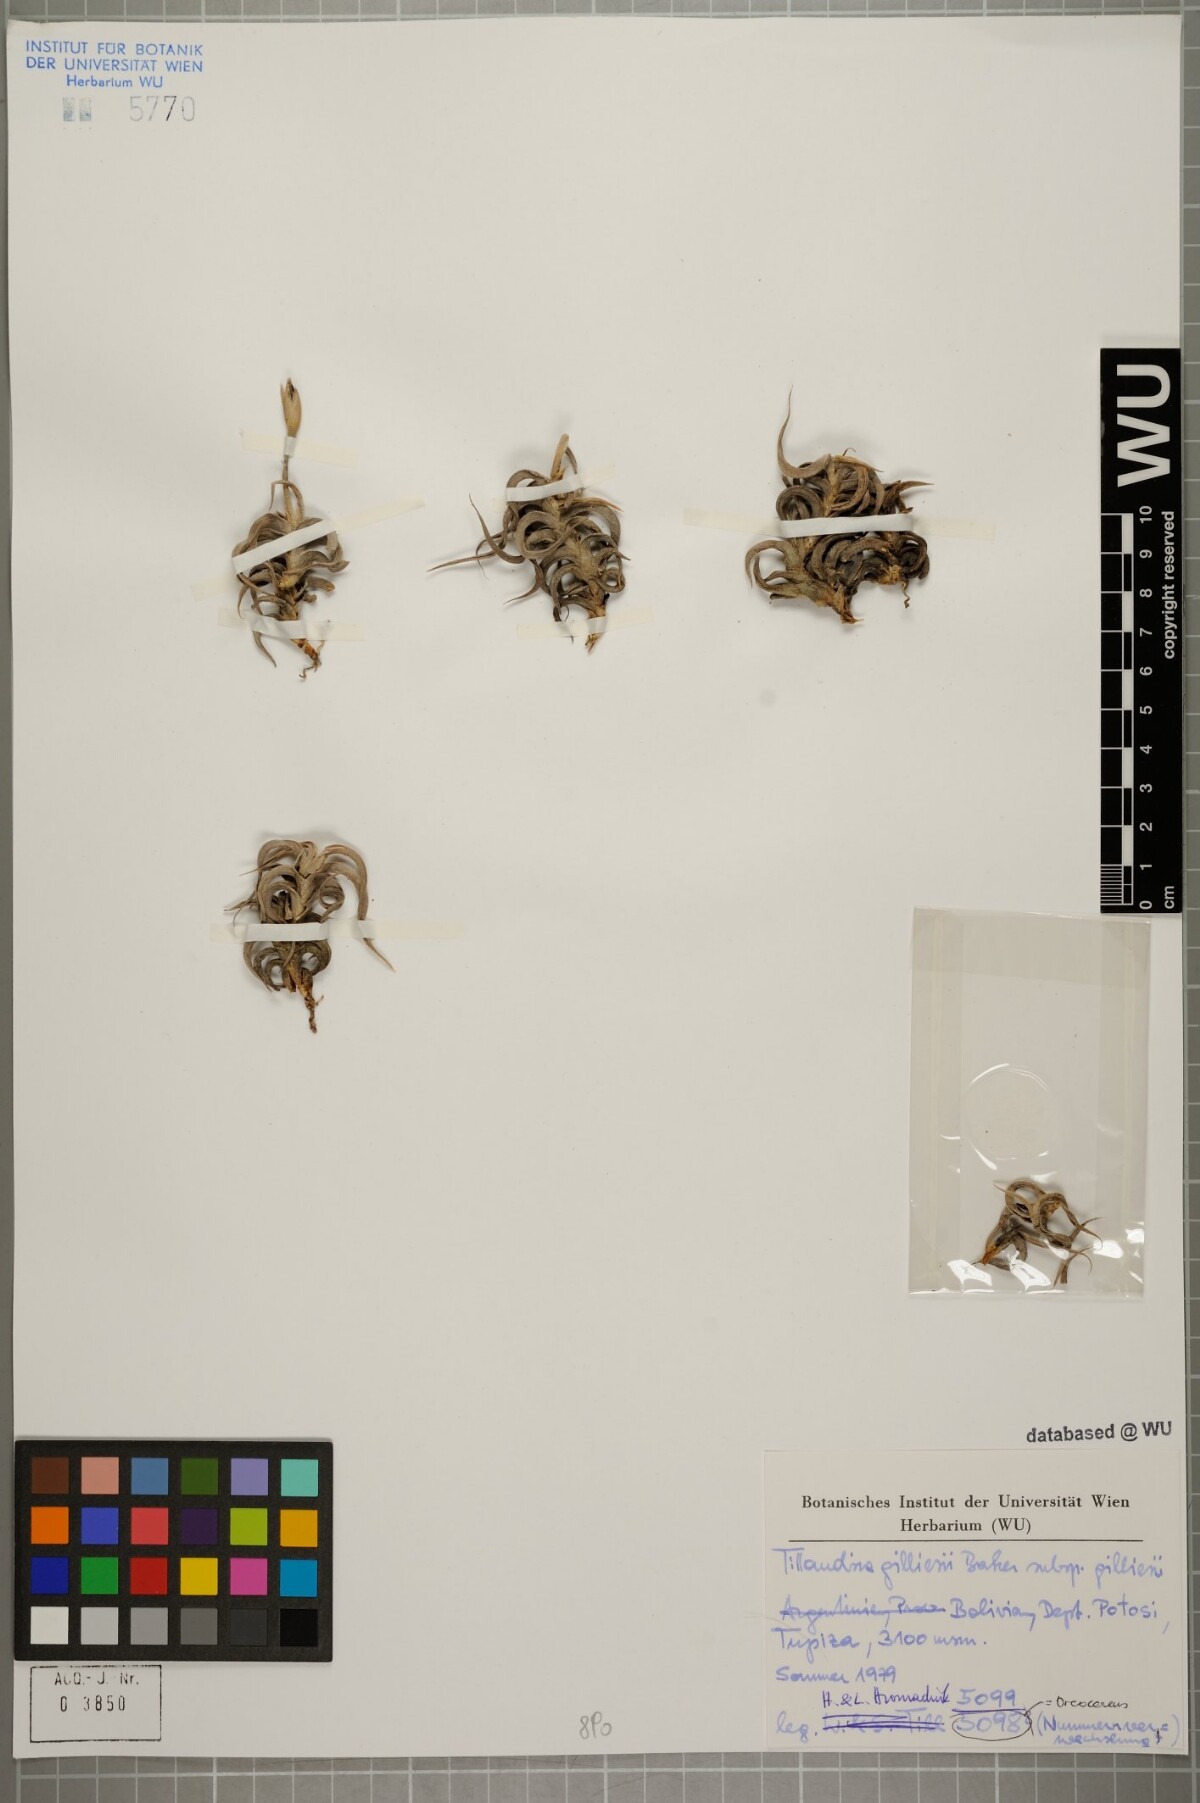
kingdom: Plantae
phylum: Tracheophyta
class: Liliopsida
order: Poales
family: Bromeliaceae
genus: Tillandsia
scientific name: Tillandsia gilliesii
